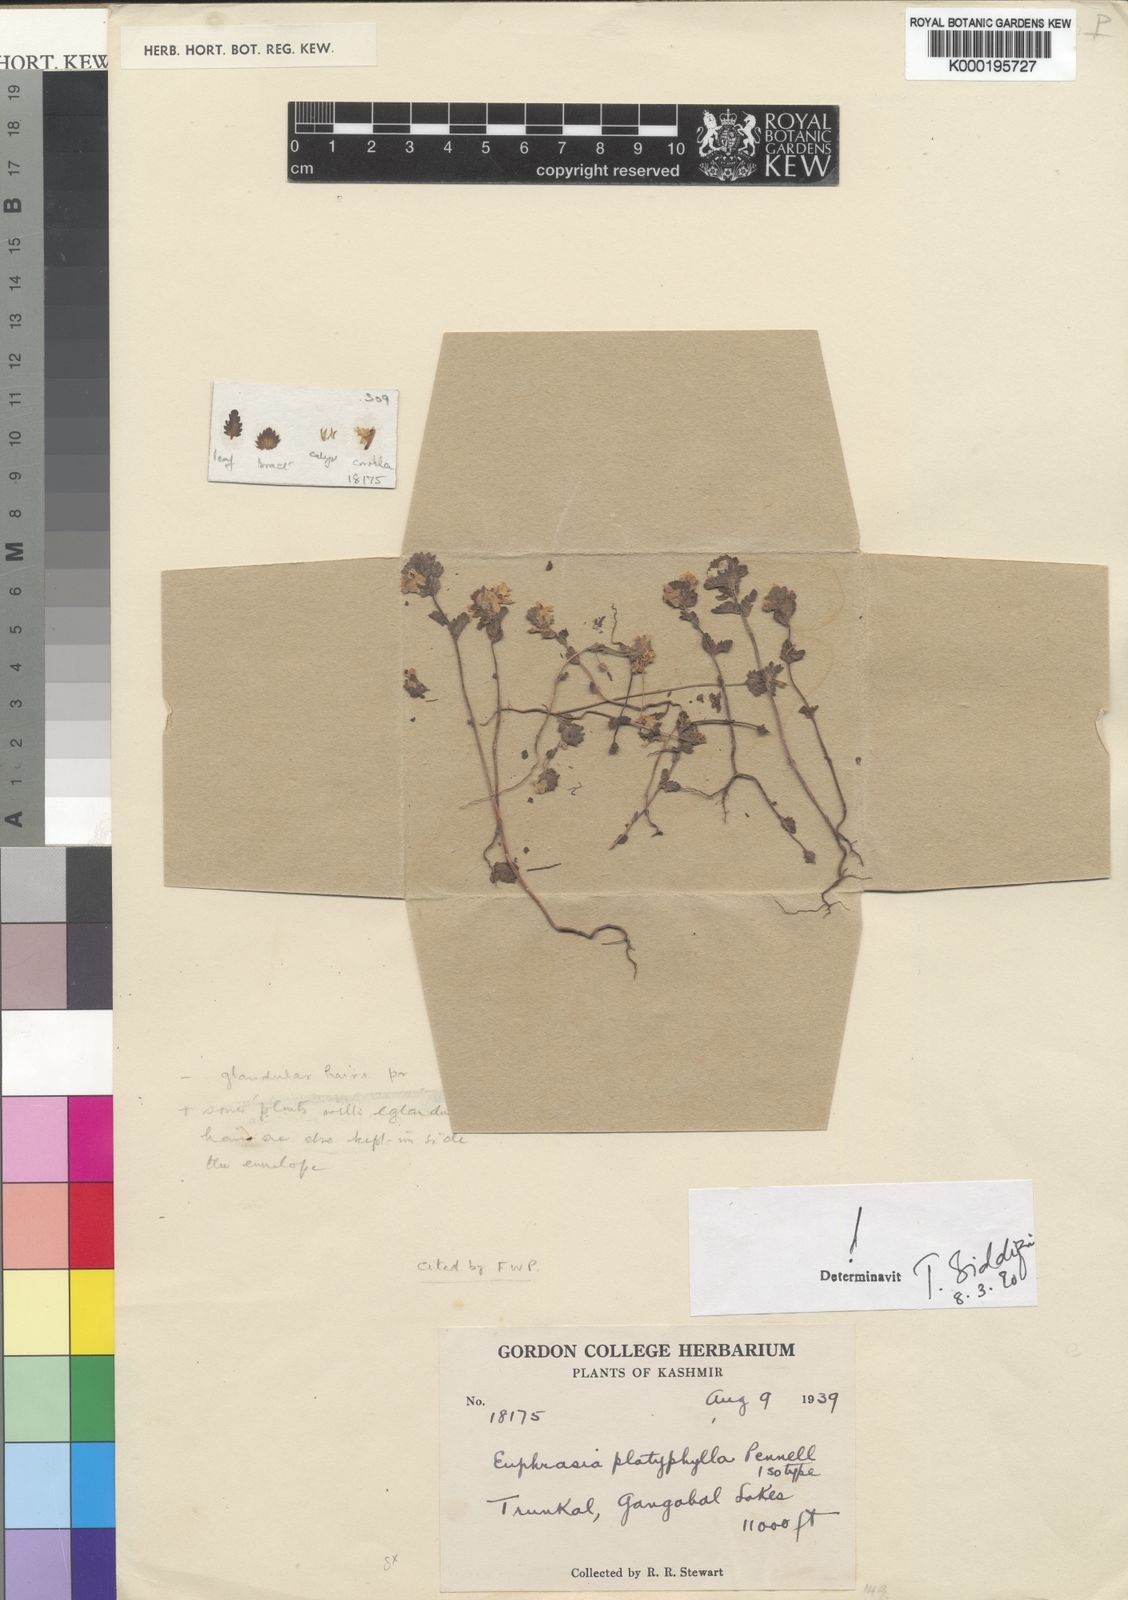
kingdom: Plantae
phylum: Tracheophyta
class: Magnoliopsida
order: Lamiales
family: Orobanchaceae
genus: Euphrasia
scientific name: Euphrasia platyphylla
